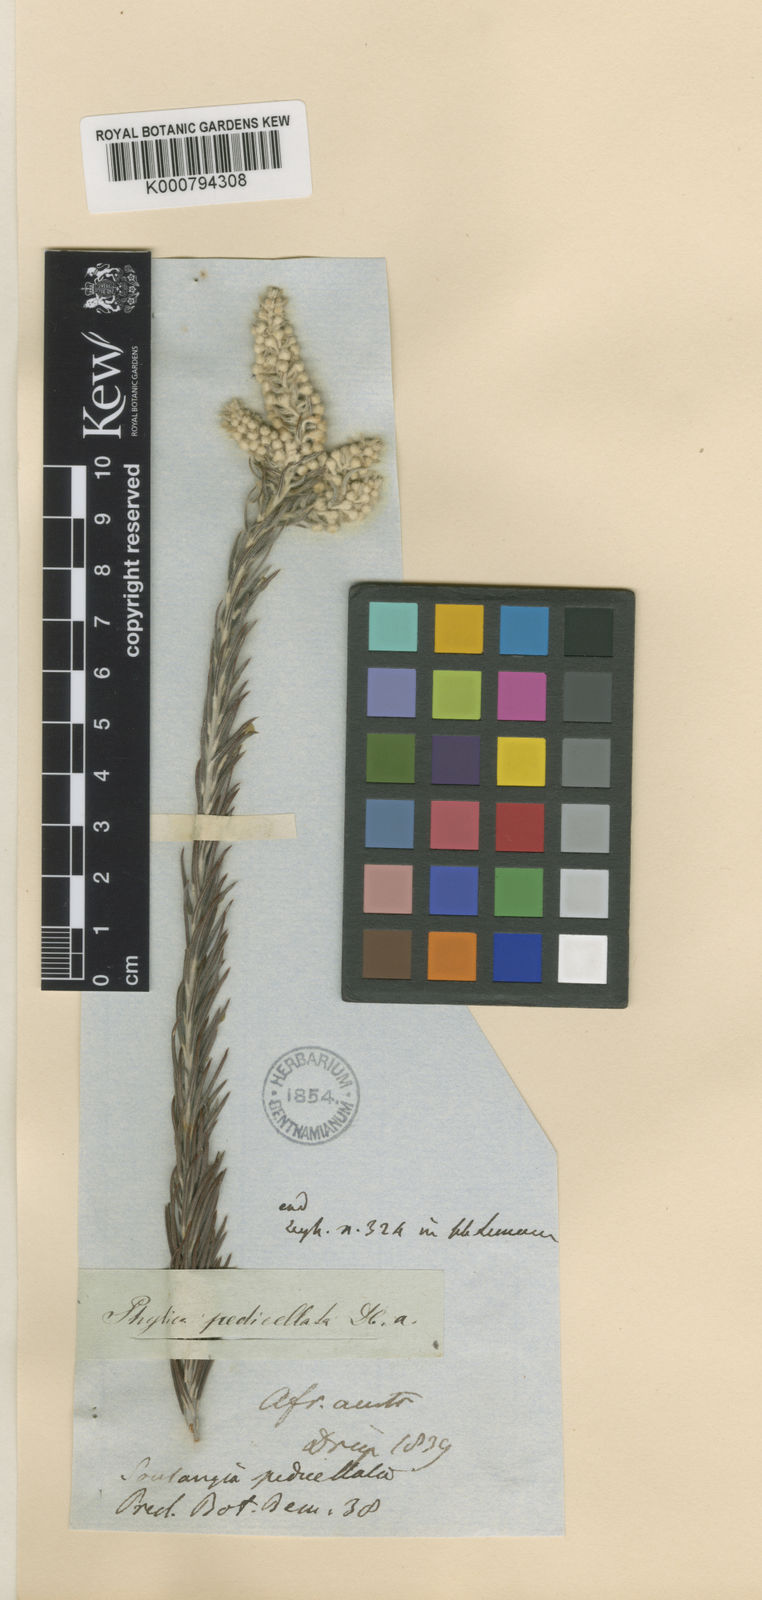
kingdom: Plantae
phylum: Tracheophyta
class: Magnoliopsida
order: Rosales
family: Rhamnaceae
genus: Phylica
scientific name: Phylica villosa
